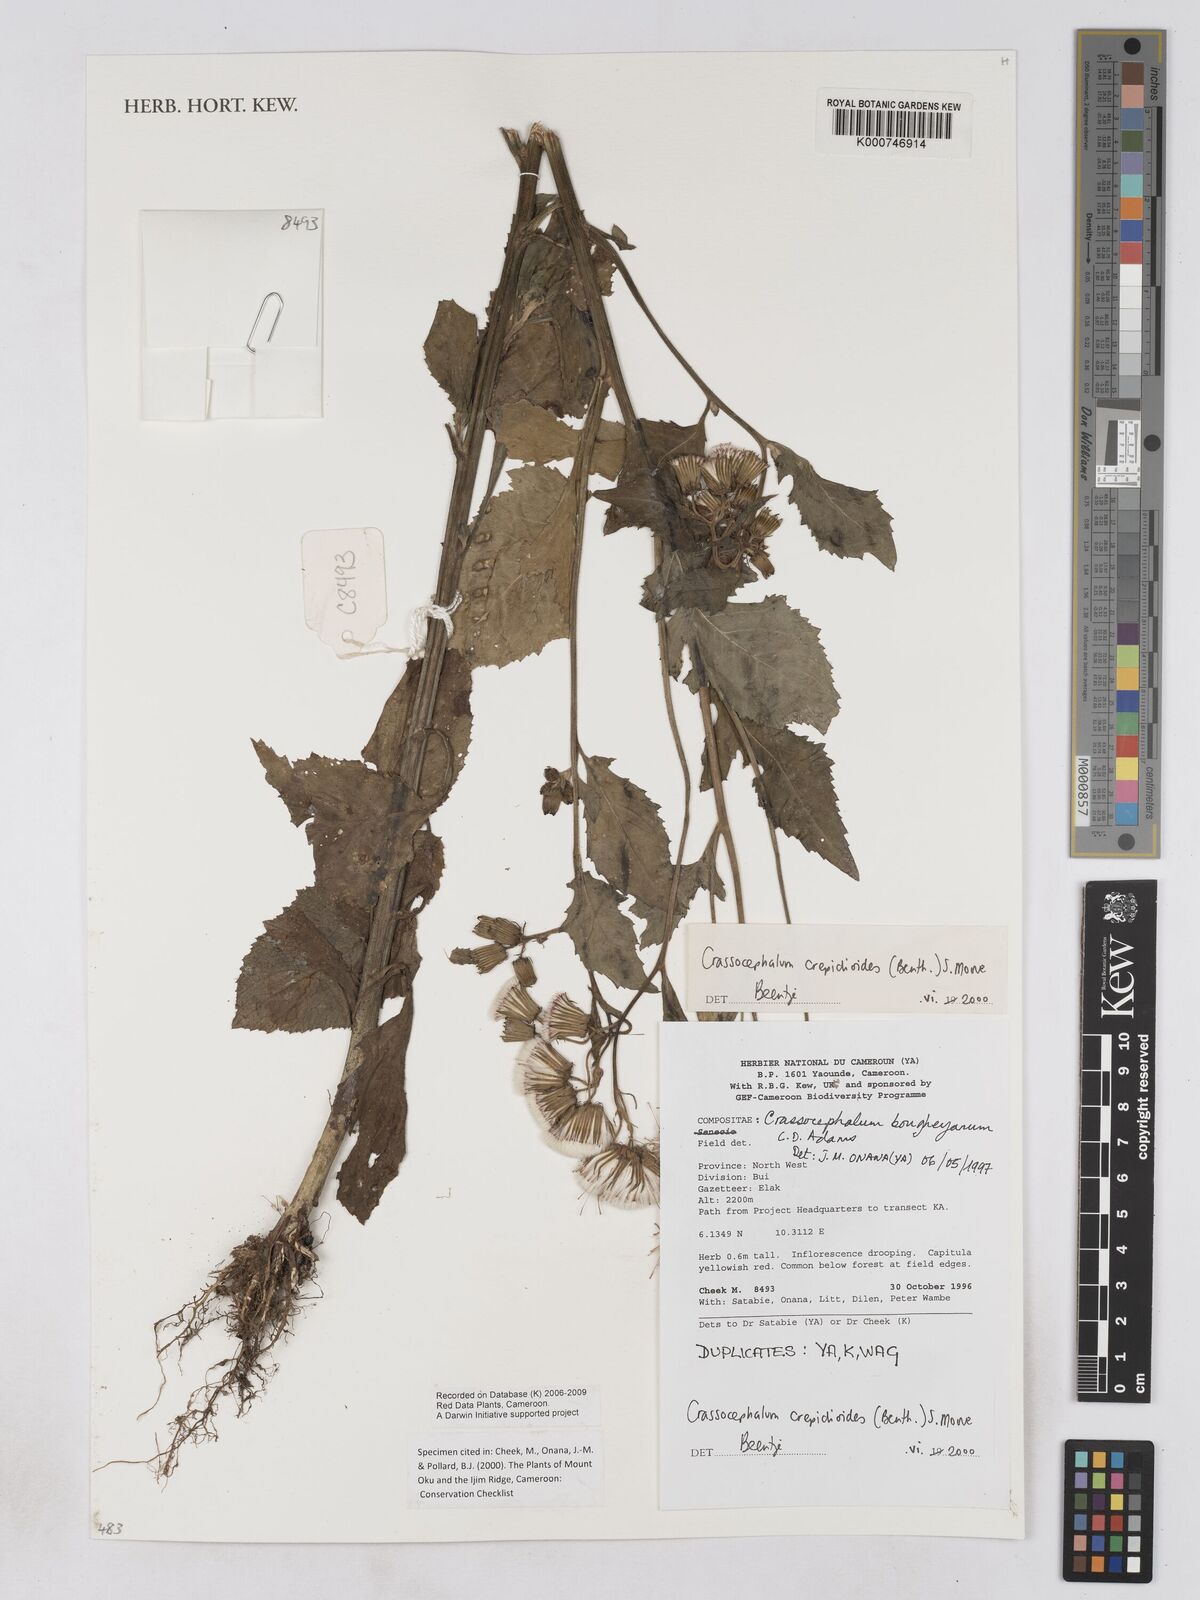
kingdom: Plantae
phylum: Tracheophyta
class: Magnoliopsida
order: Asterales
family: Asteraceae
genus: Crassocephalum
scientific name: Crassocephalum crepidioides
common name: Redflower ragleaf
